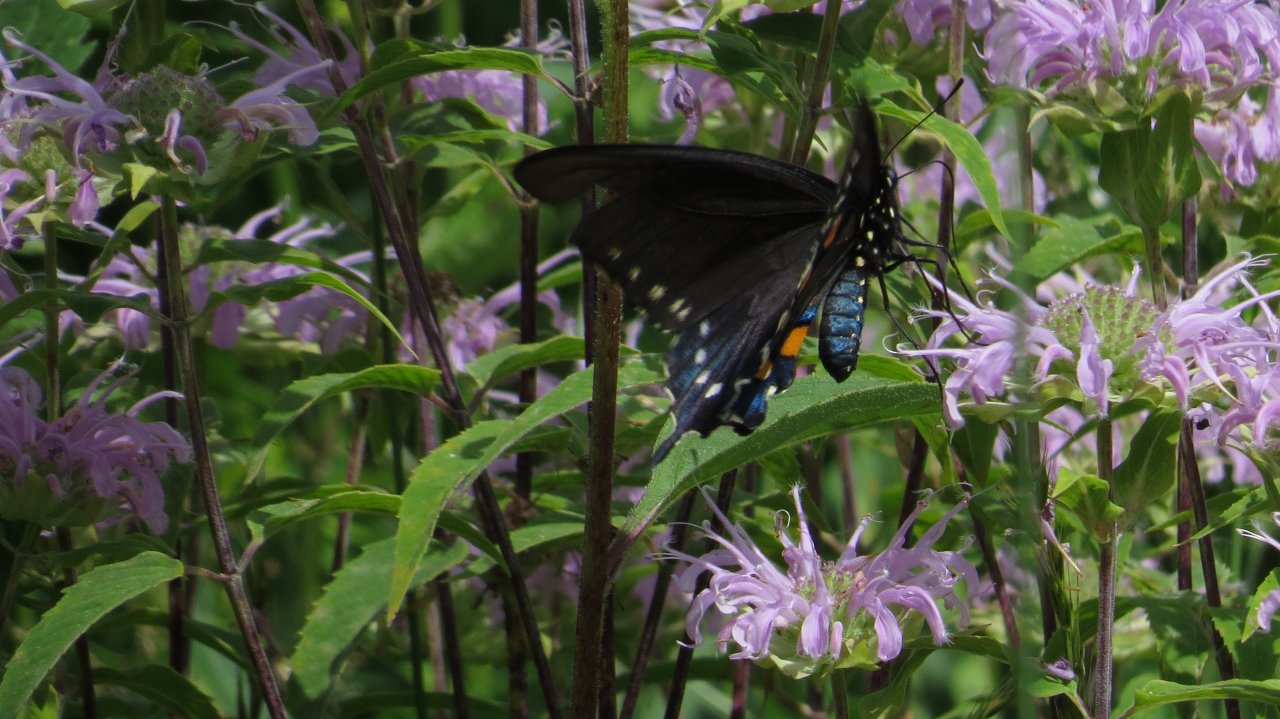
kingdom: Animalia
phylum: Arthropoda
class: Insecta
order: Lepidoptera
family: Papilionidae
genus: Battus
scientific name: Battus philenor
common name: Pipevine Swallowtail
